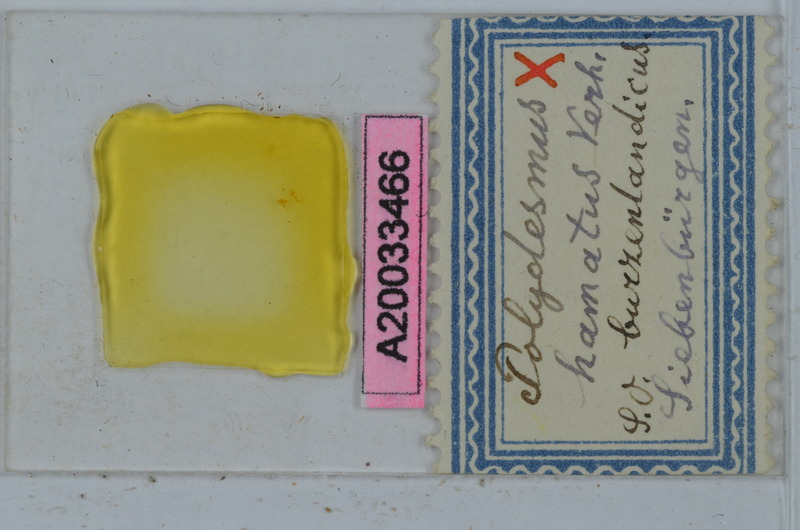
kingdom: Animalia
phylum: Arthropoda
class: Diplopoda
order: Polydesmida
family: Polydesmidae
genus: Polydesmus
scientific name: Polydesmus burzenlandicus
